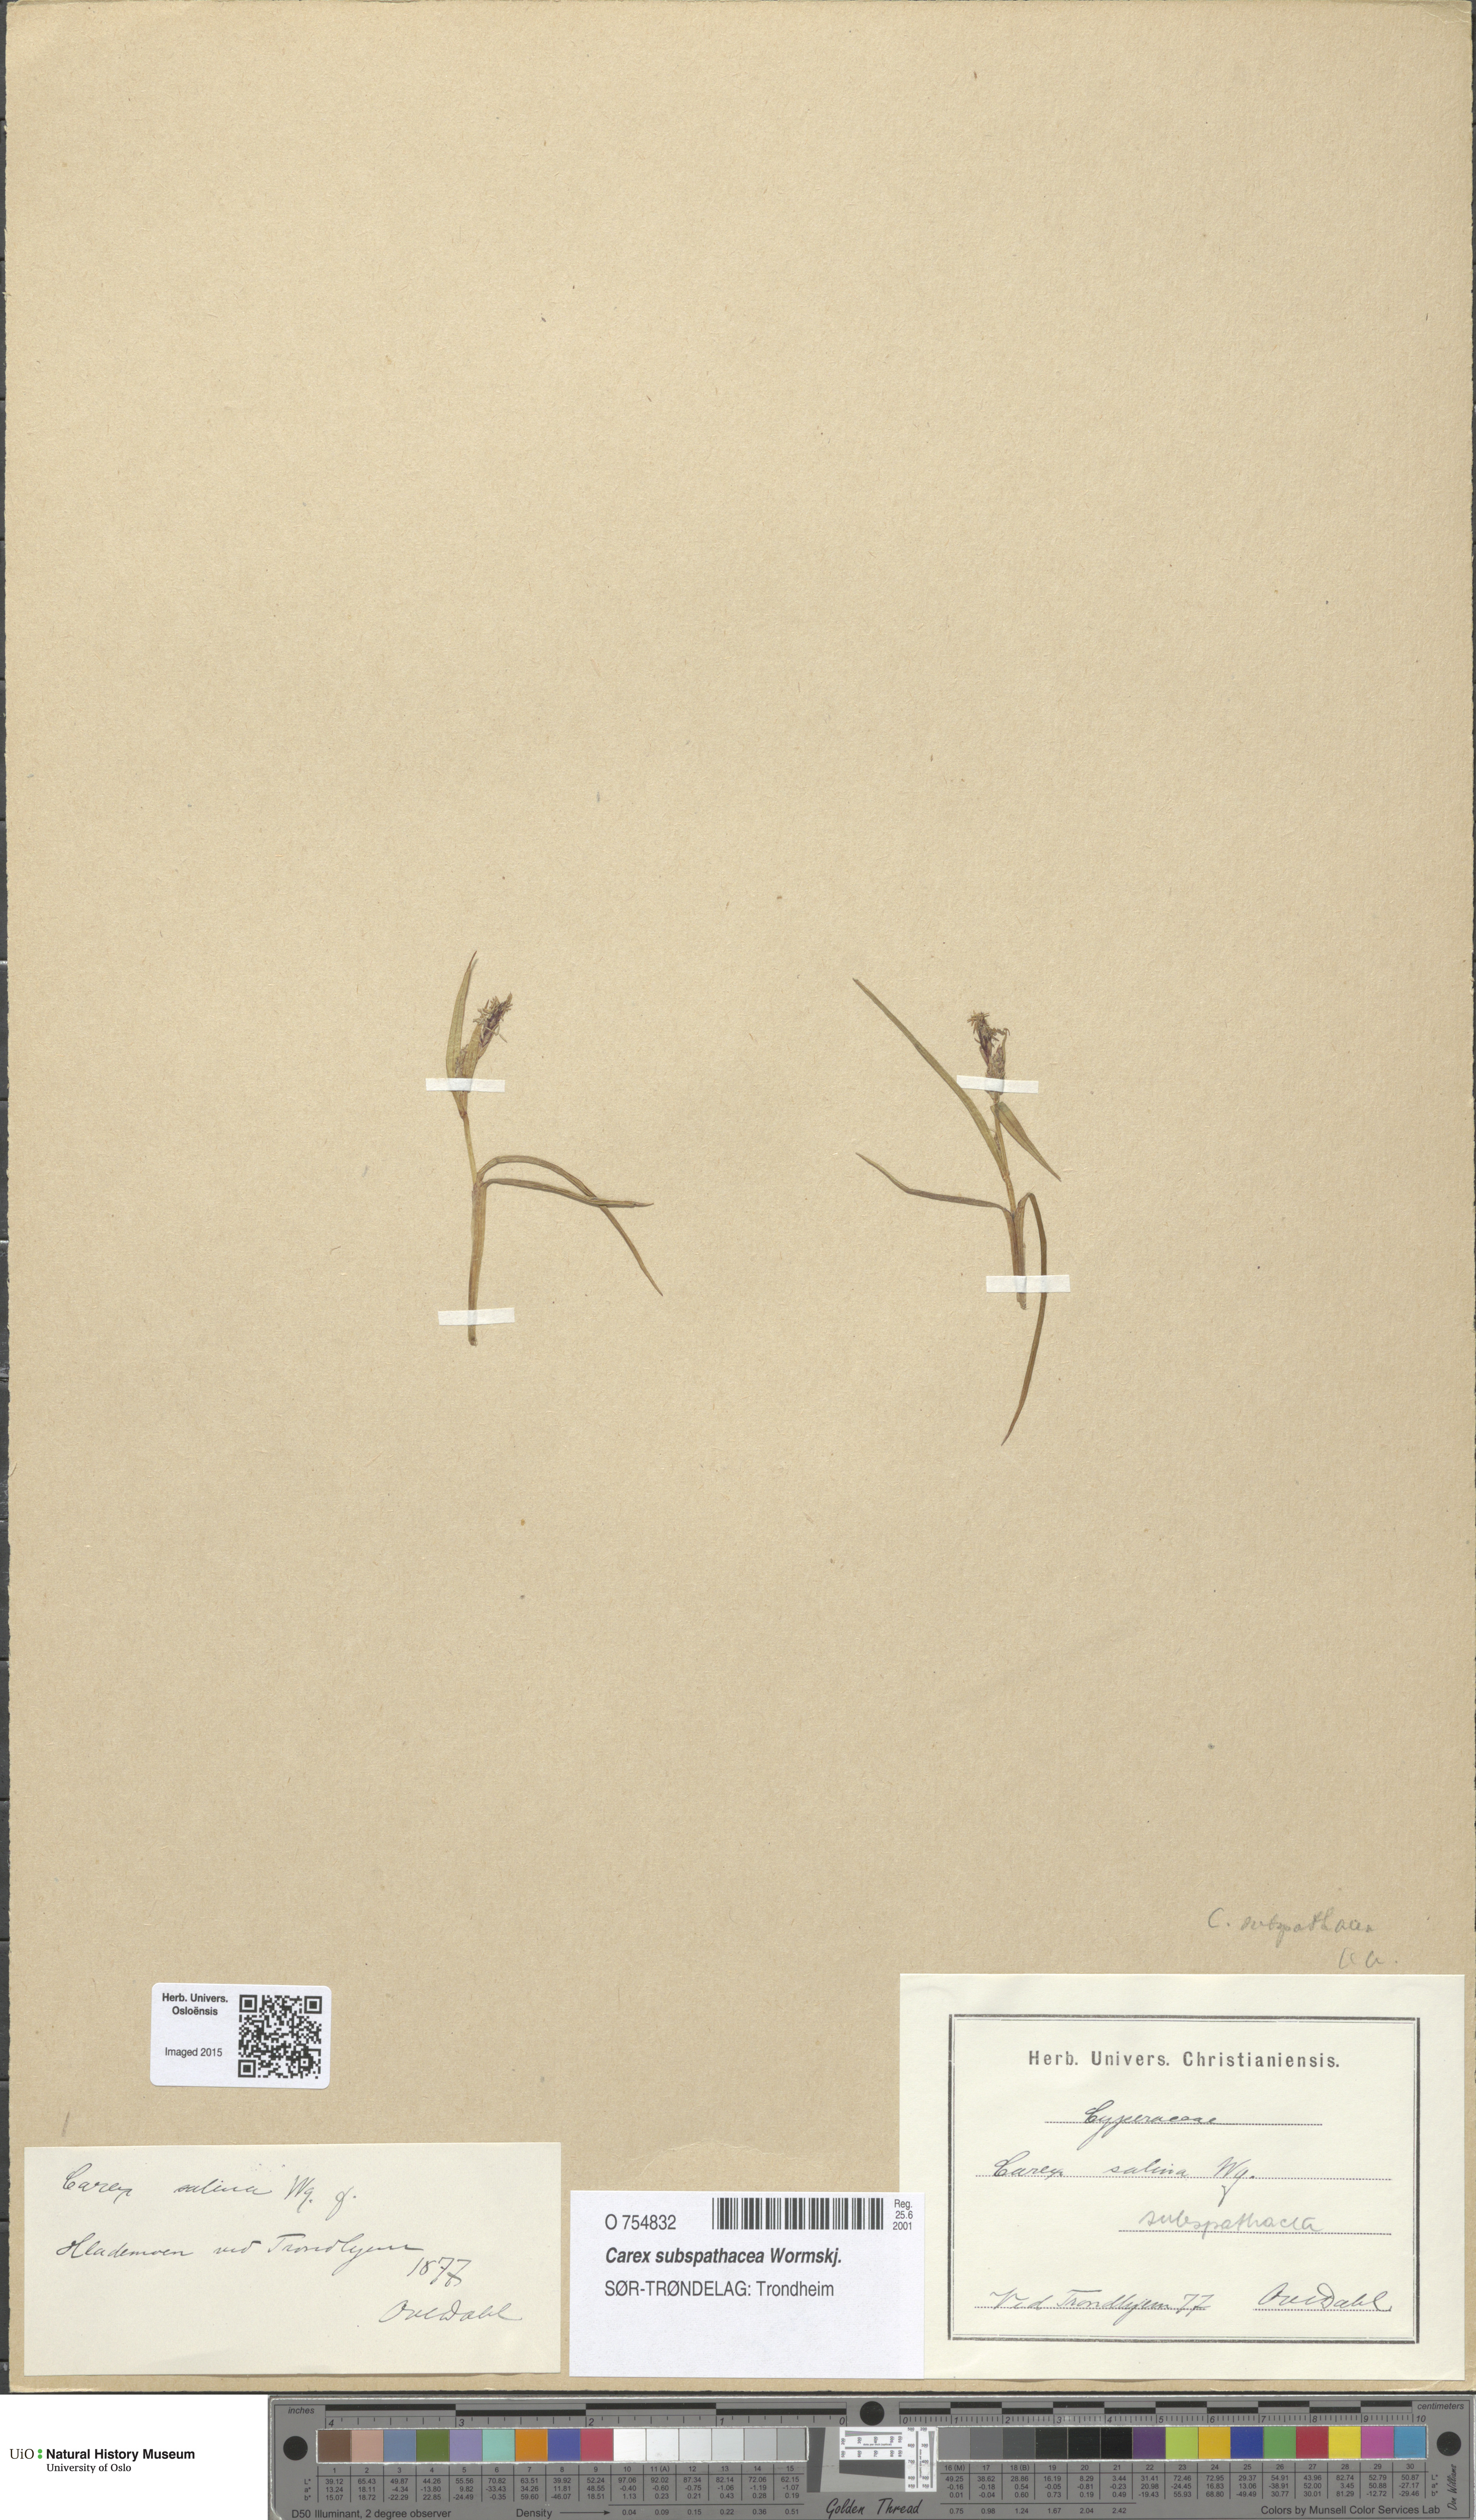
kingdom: Plantae
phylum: Tracheophyta
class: Liliopsida
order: Poales
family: Cyperaceae
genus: Carex
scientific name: Carex subspathacea
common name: Hoppner's sedge
